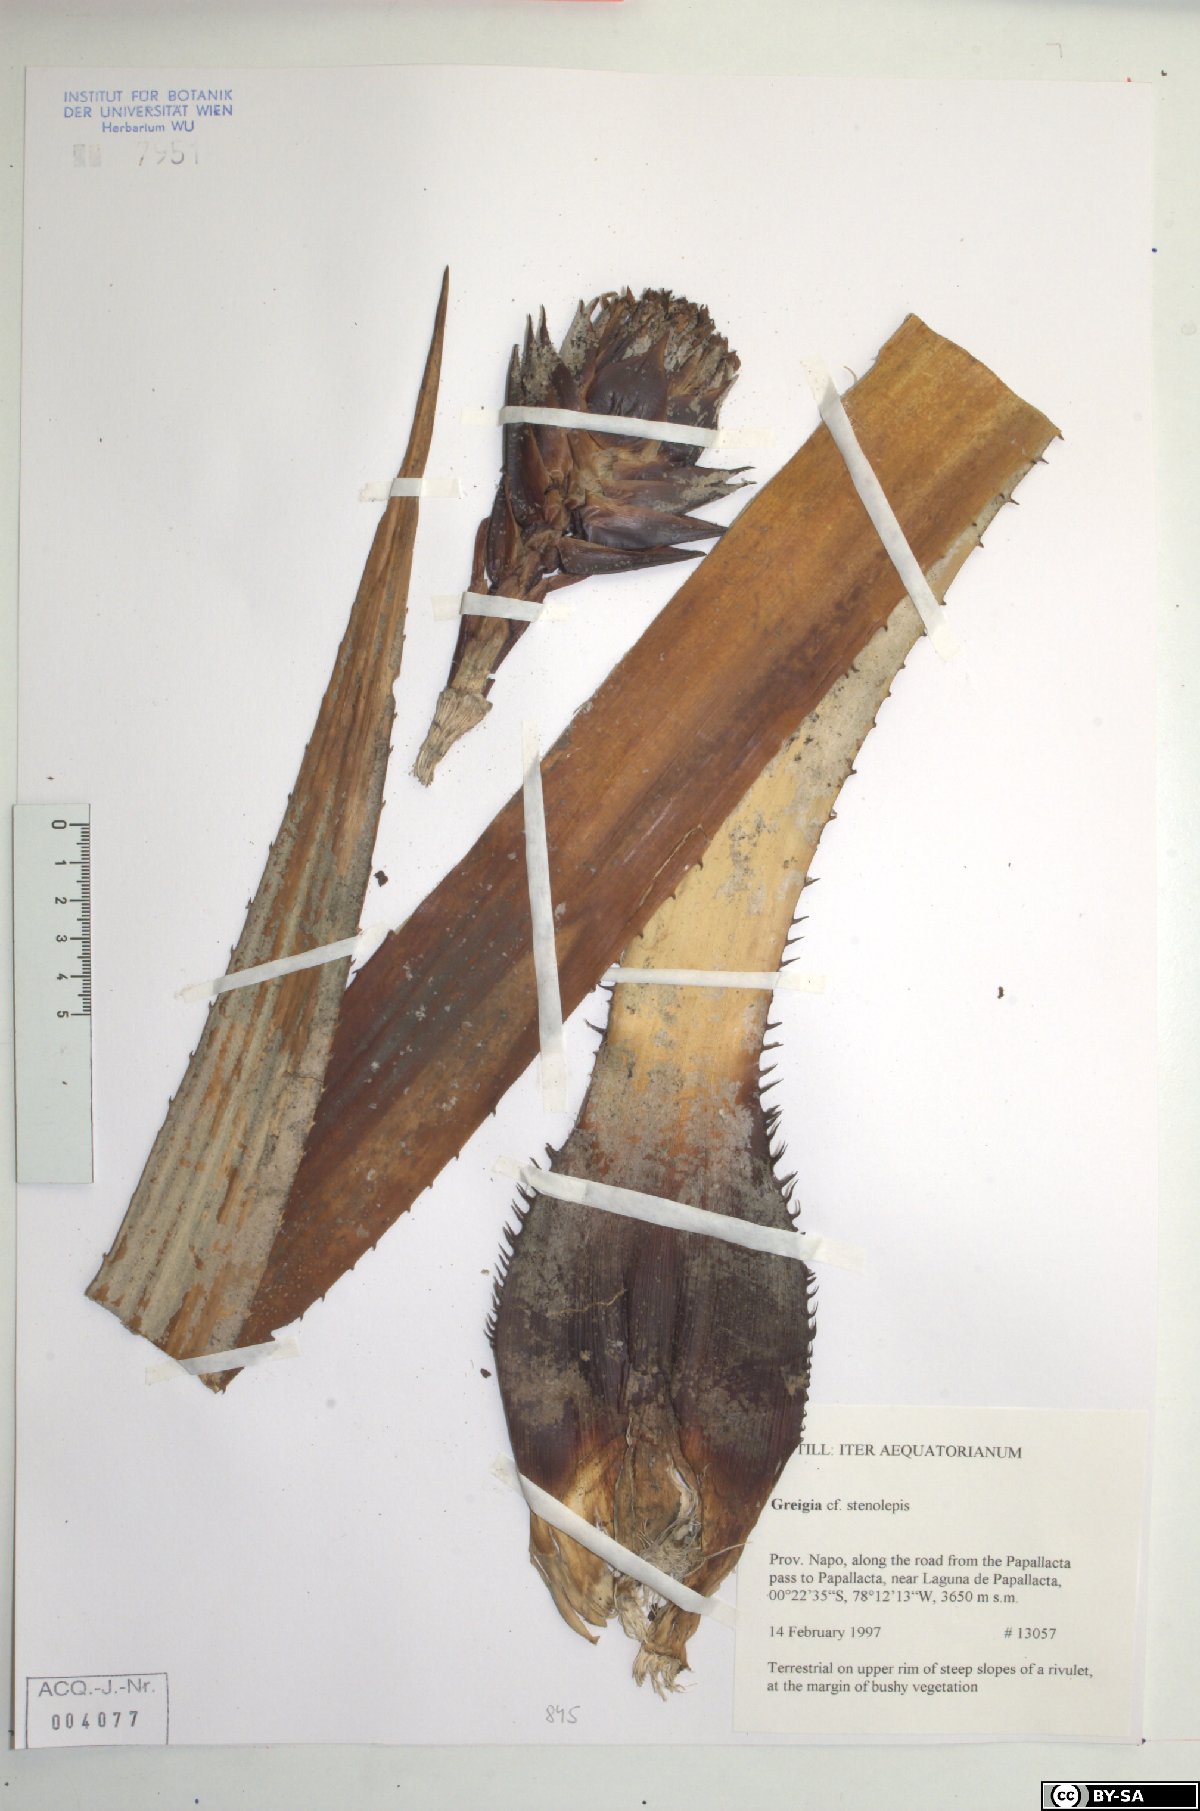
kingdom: Plantae
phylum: Tracheophyta
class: Liliopsida
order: Poales
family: Bromeliaceae
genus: Greigia
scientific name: Greigia stenolepis
